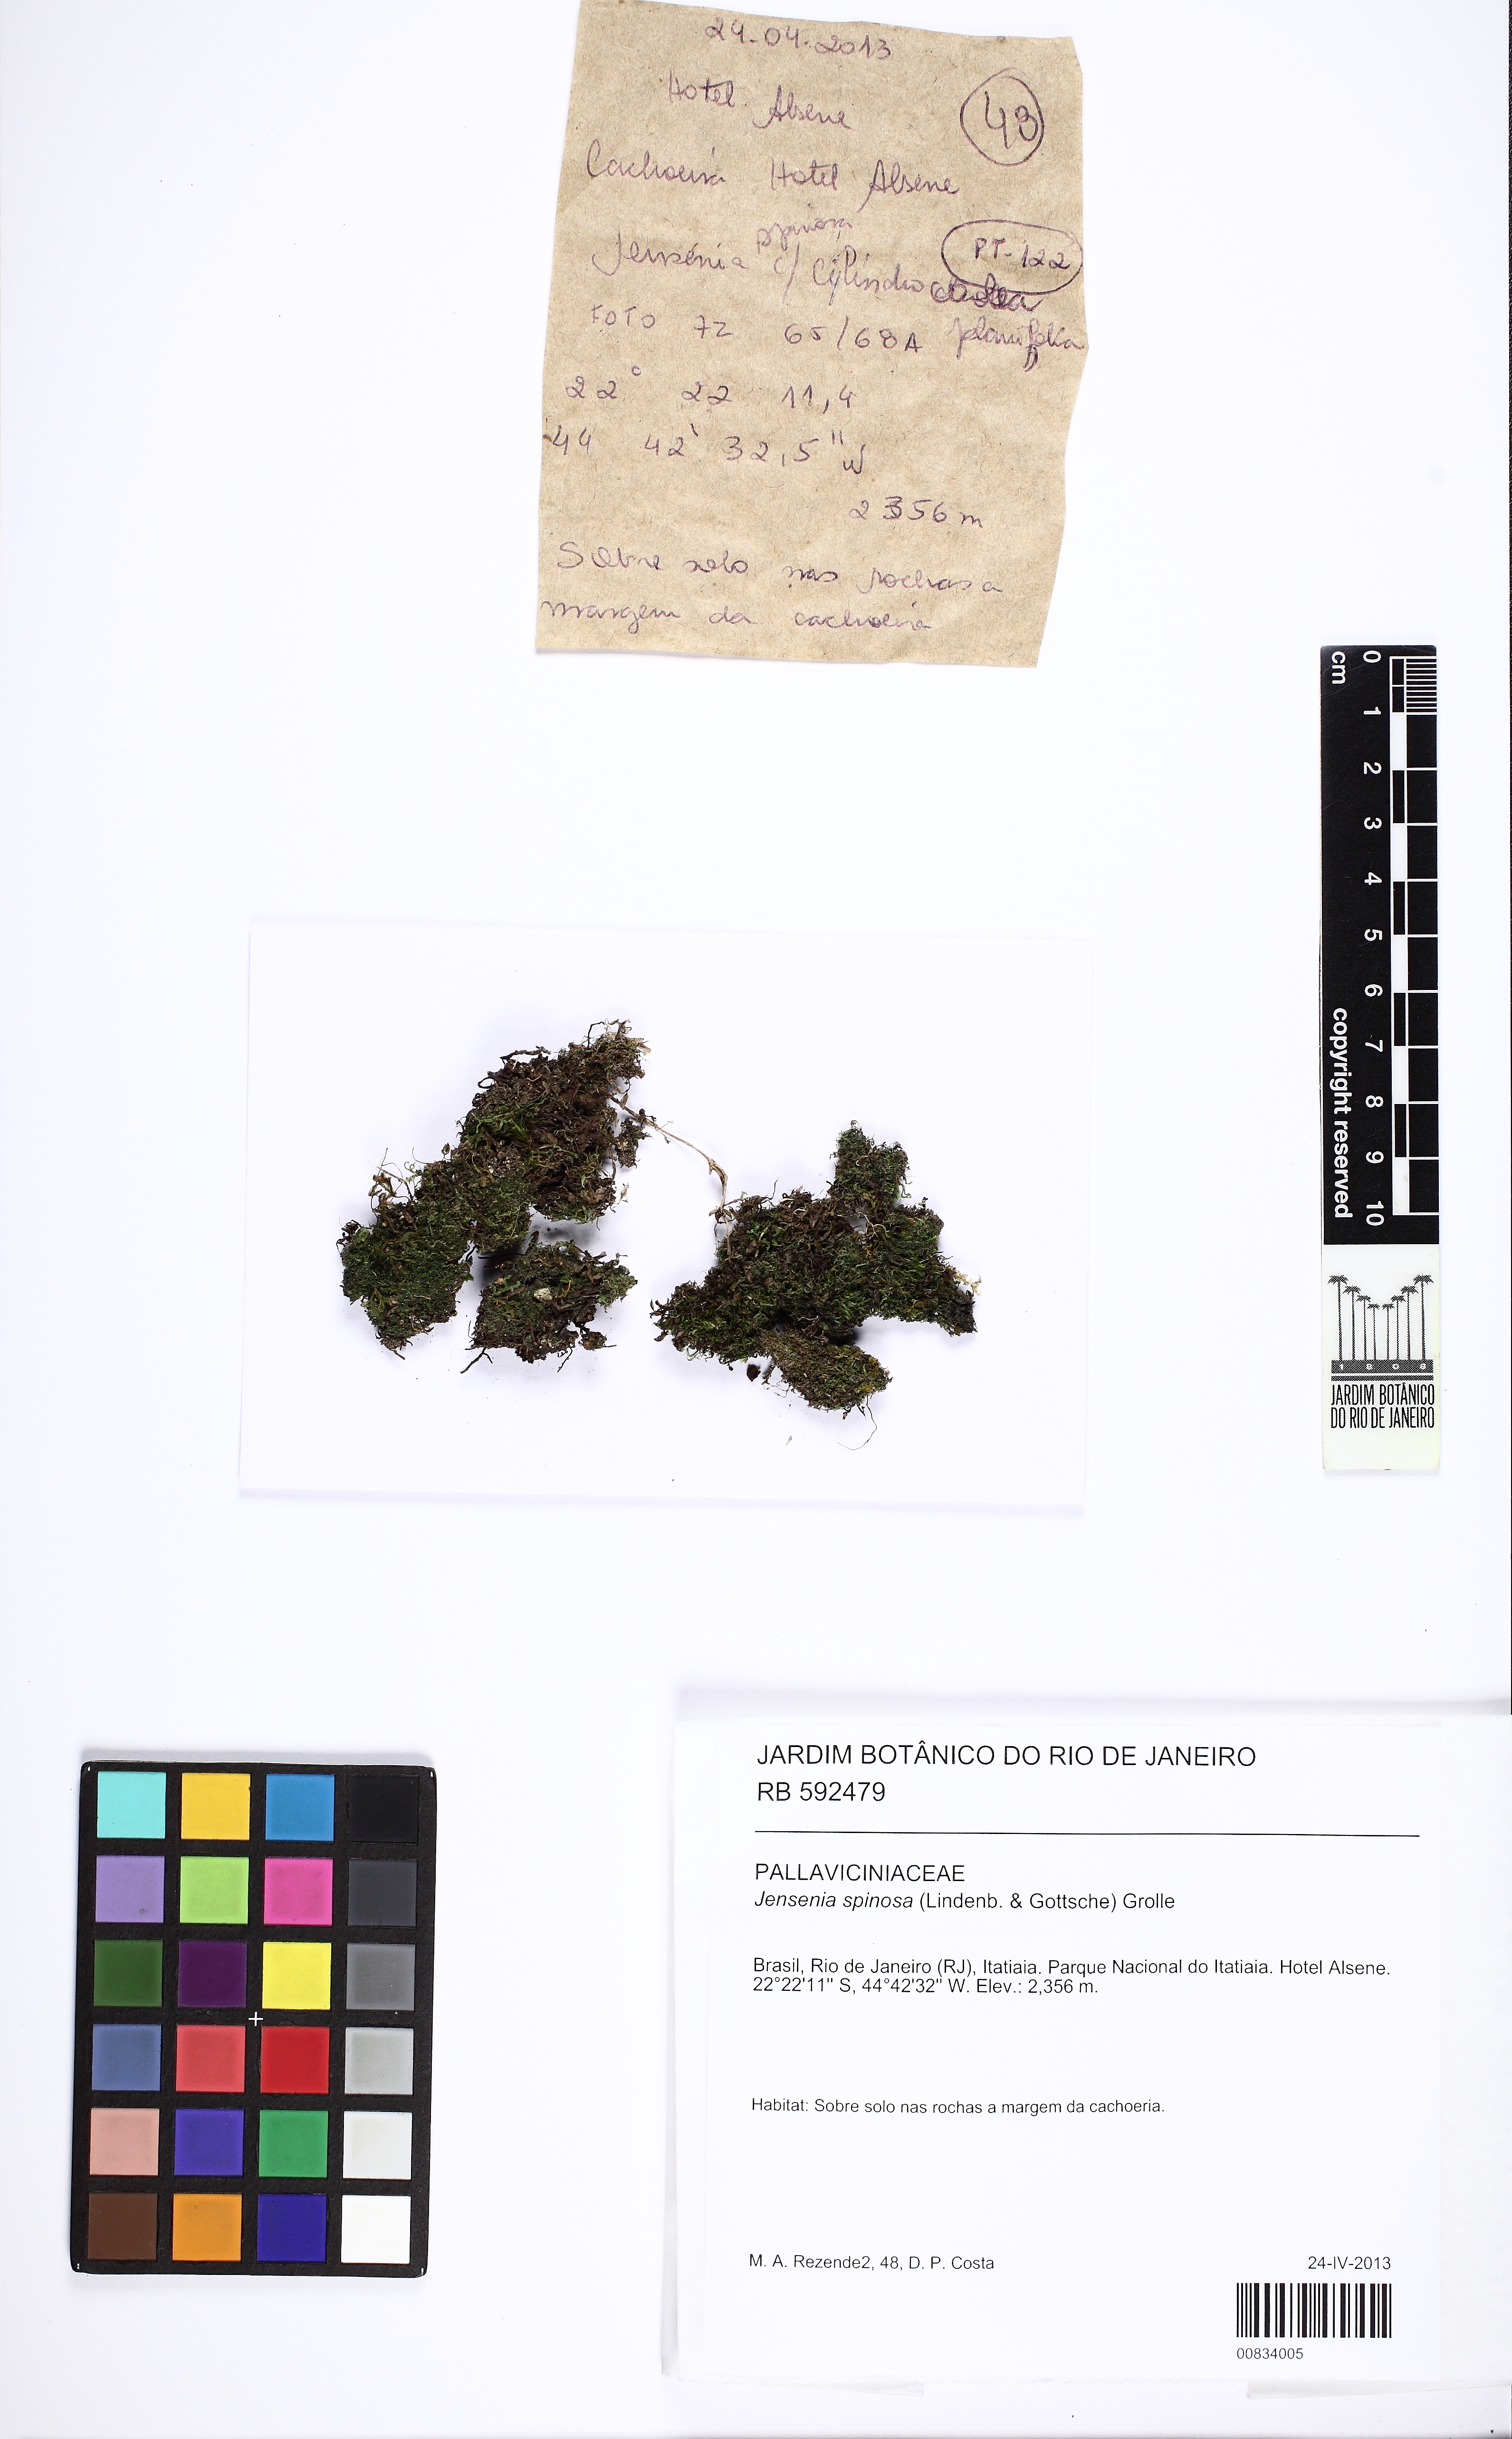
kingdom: Plantae
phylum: Marchantiophyta
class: Jungermanniopsida
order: Pallaviciniales
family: Pallaviciniaceae
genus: Jensenia
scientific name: Jensenia spinosa
